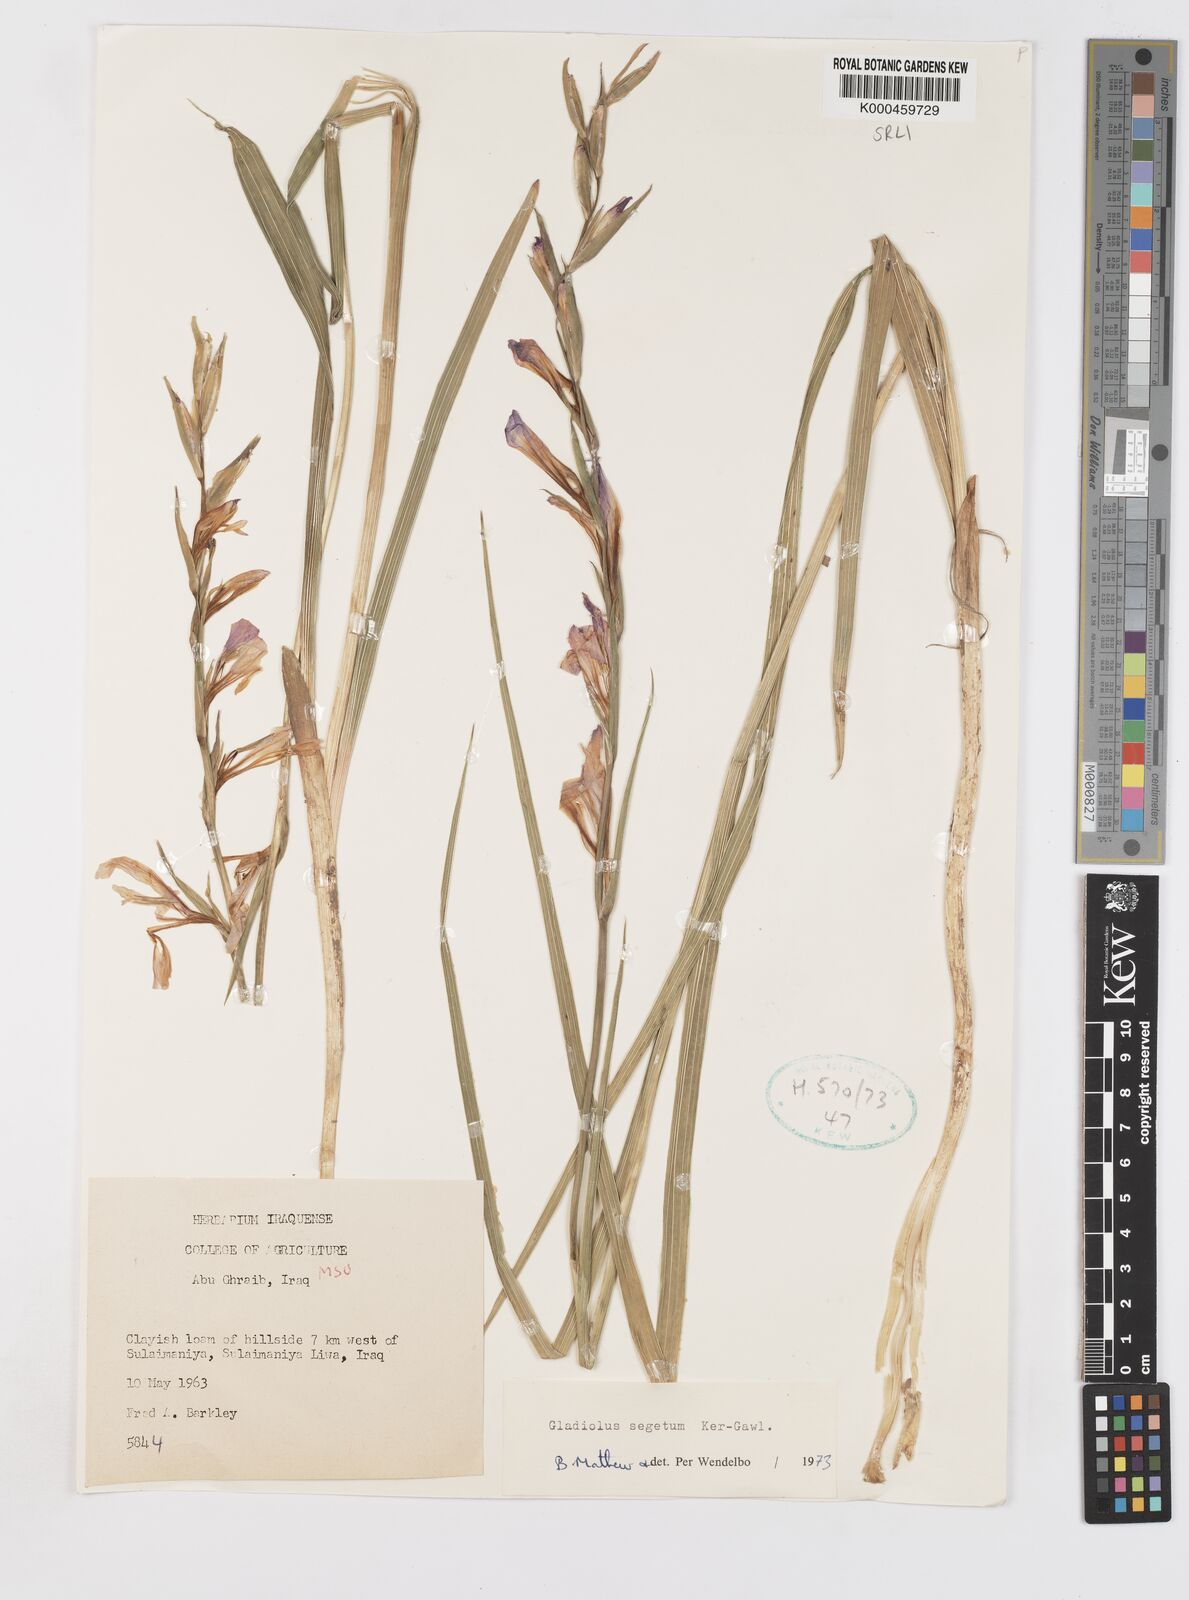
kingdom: Plantae
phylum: Tracheophyta
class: Liliopsida
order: Asparagales
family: Iridaceae
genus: Gladiolus
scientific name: Gladiolus italicus
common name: Field gladiolus
